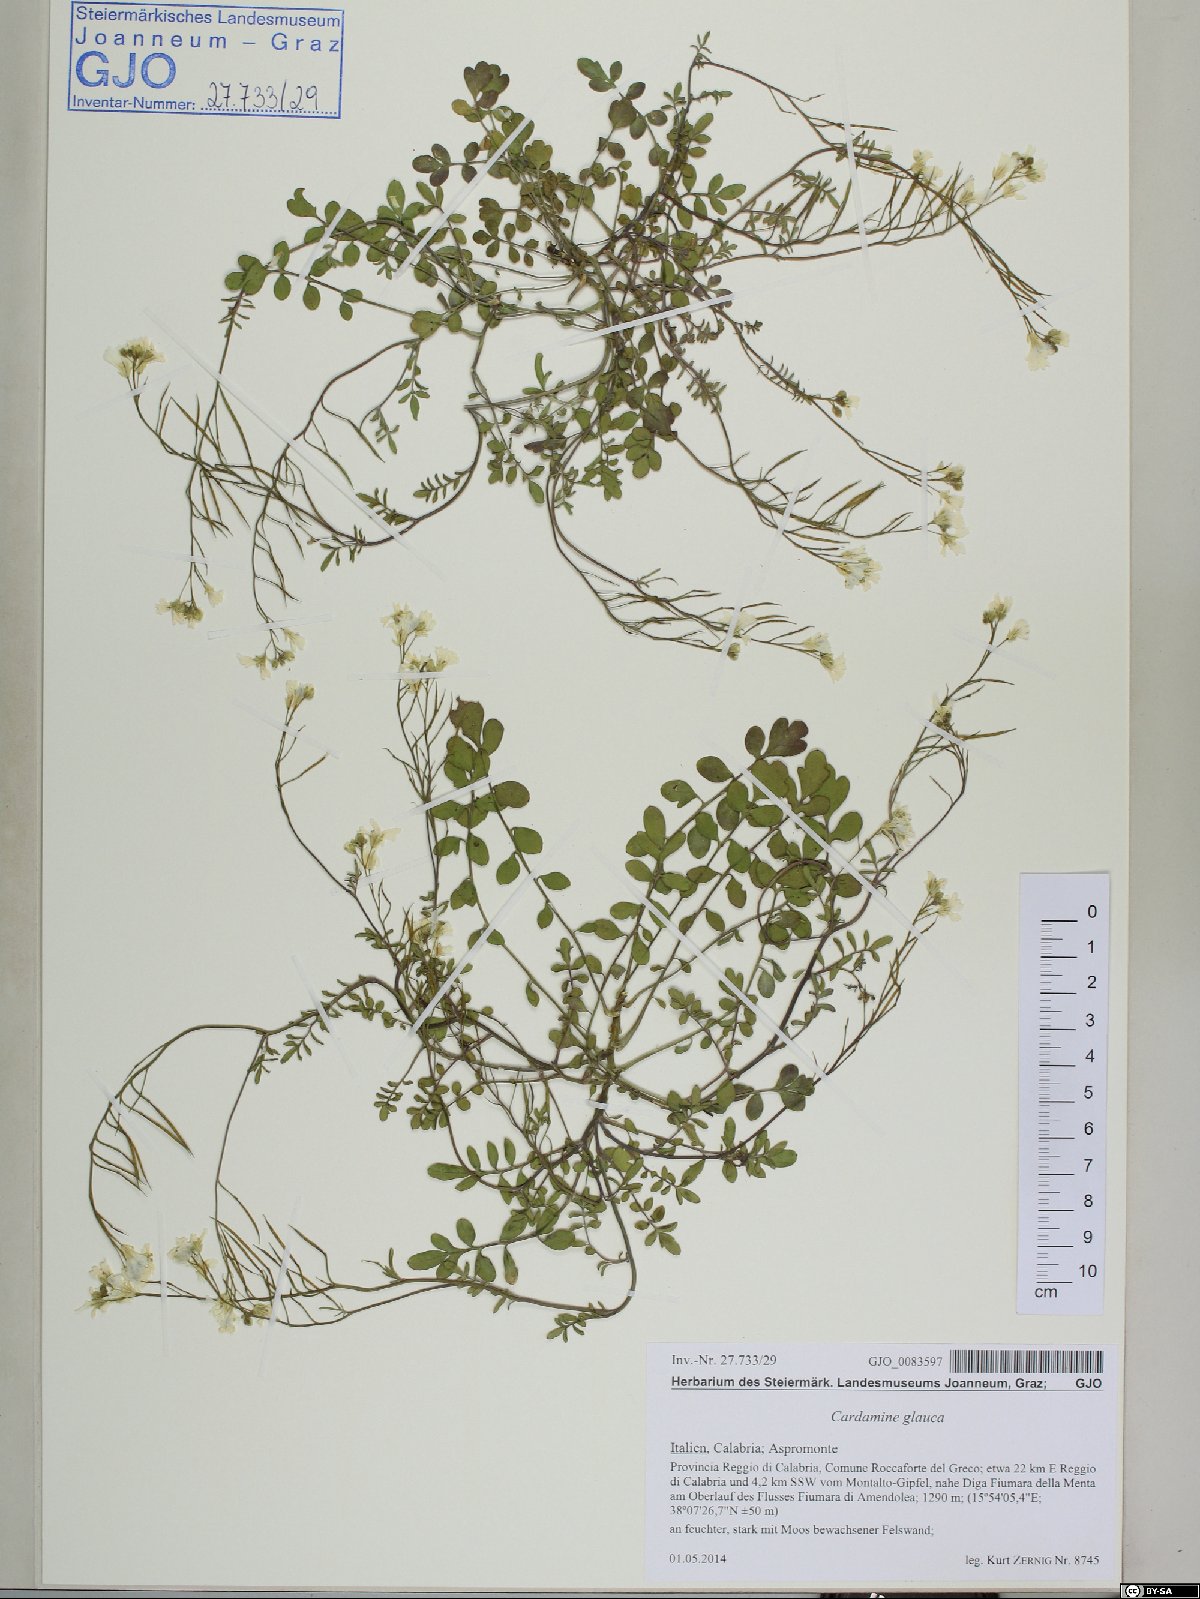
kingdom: Plantae
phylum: Tracheophyta
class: Magnoliopsida
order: Brassicales
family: Brassicaceae
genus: Cardamine
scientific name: Cardamine glauca
